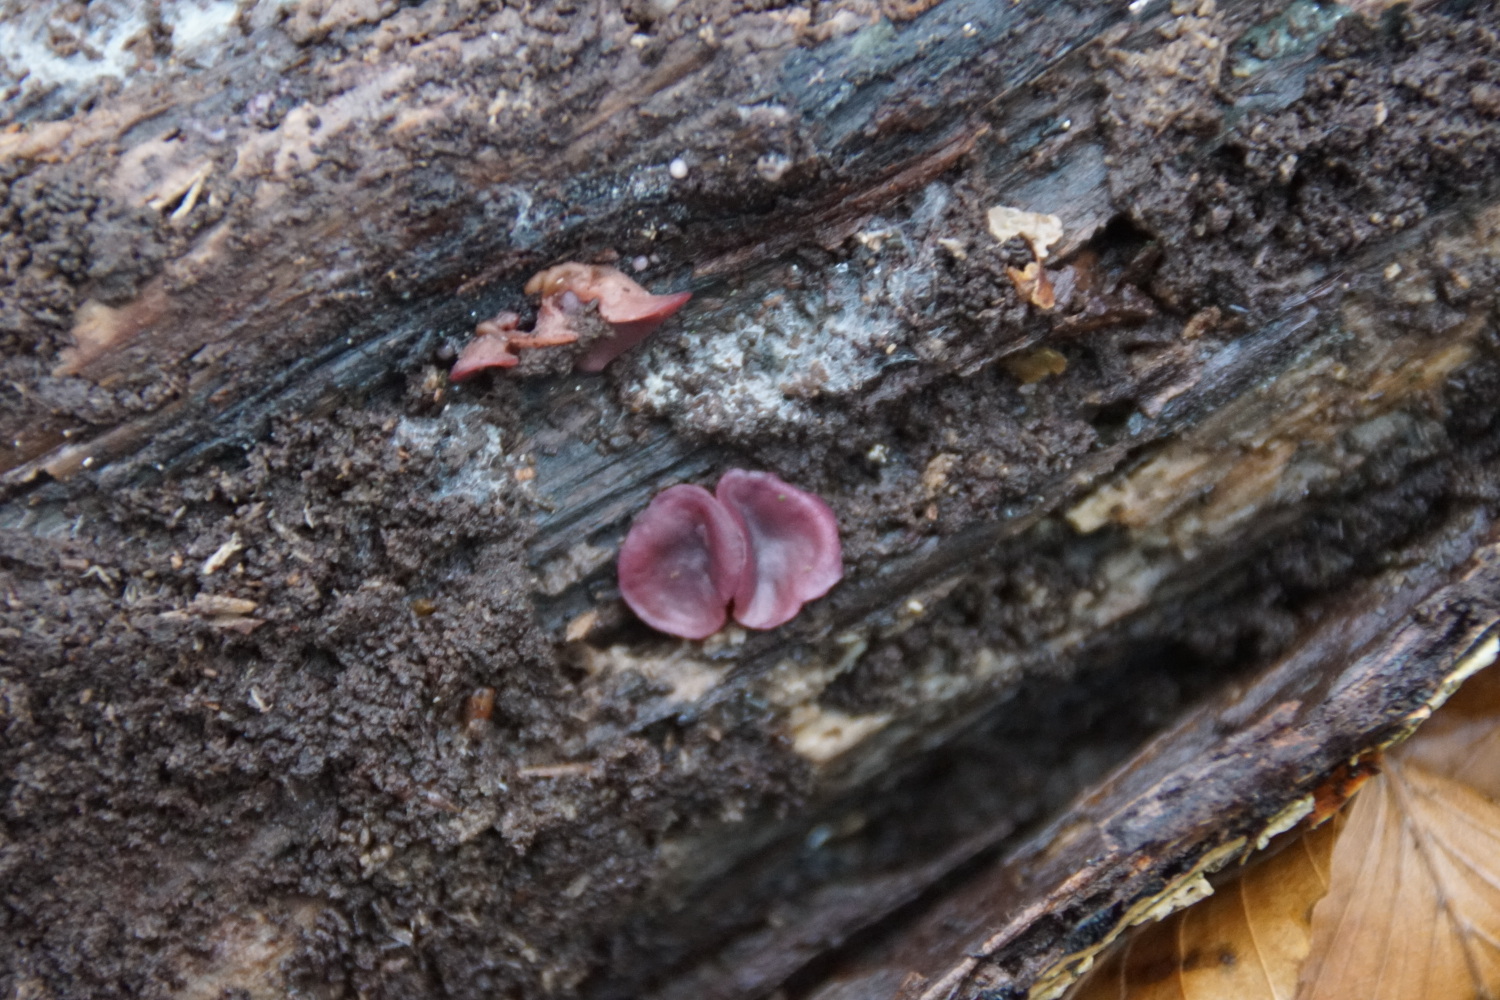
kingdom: Fungi
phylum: Ascomycota
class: Leotiomycetes
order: Helotiales
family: Gelatinodiscaceae
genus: Ascocoryne
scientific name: Ascocoryne cylichnium
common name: stor sejskive
